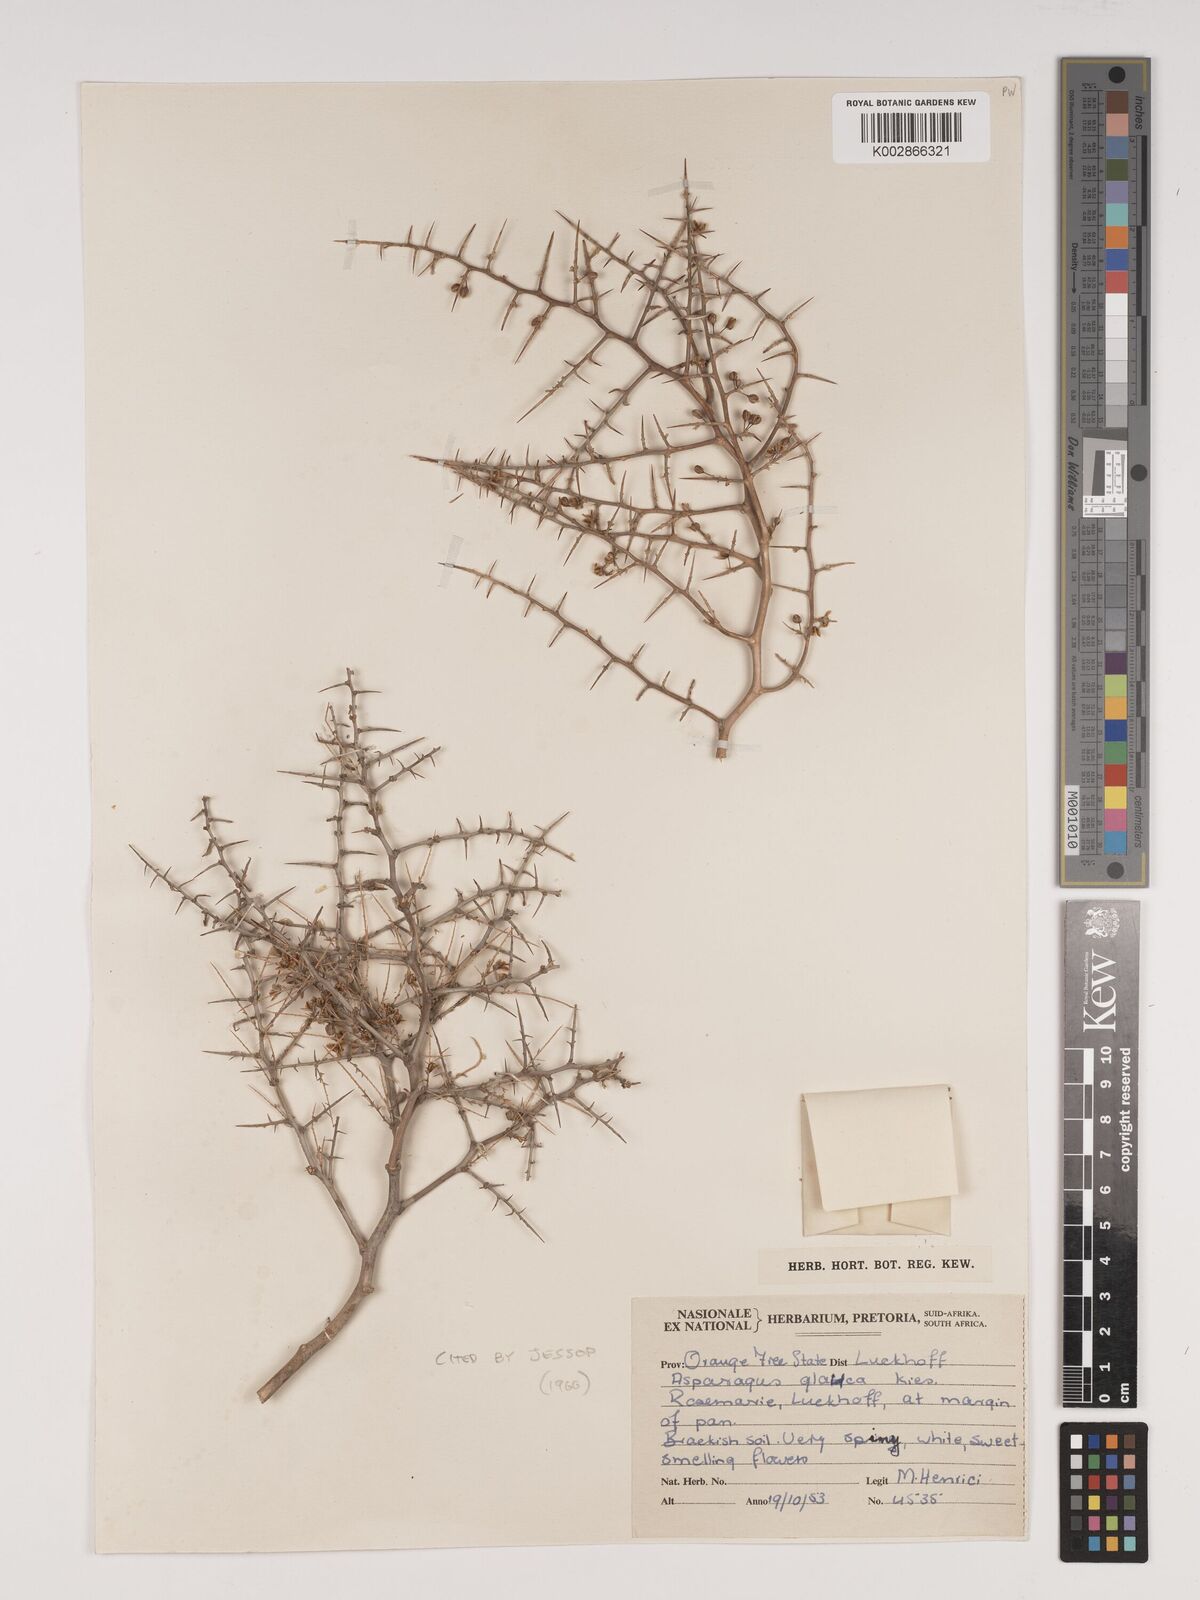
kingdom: Plantae
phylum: Tracheophyta
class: Liliopsida
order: Asparagales
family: Asparagaceae
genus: Asparagus
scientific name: Asparagus glaucus
